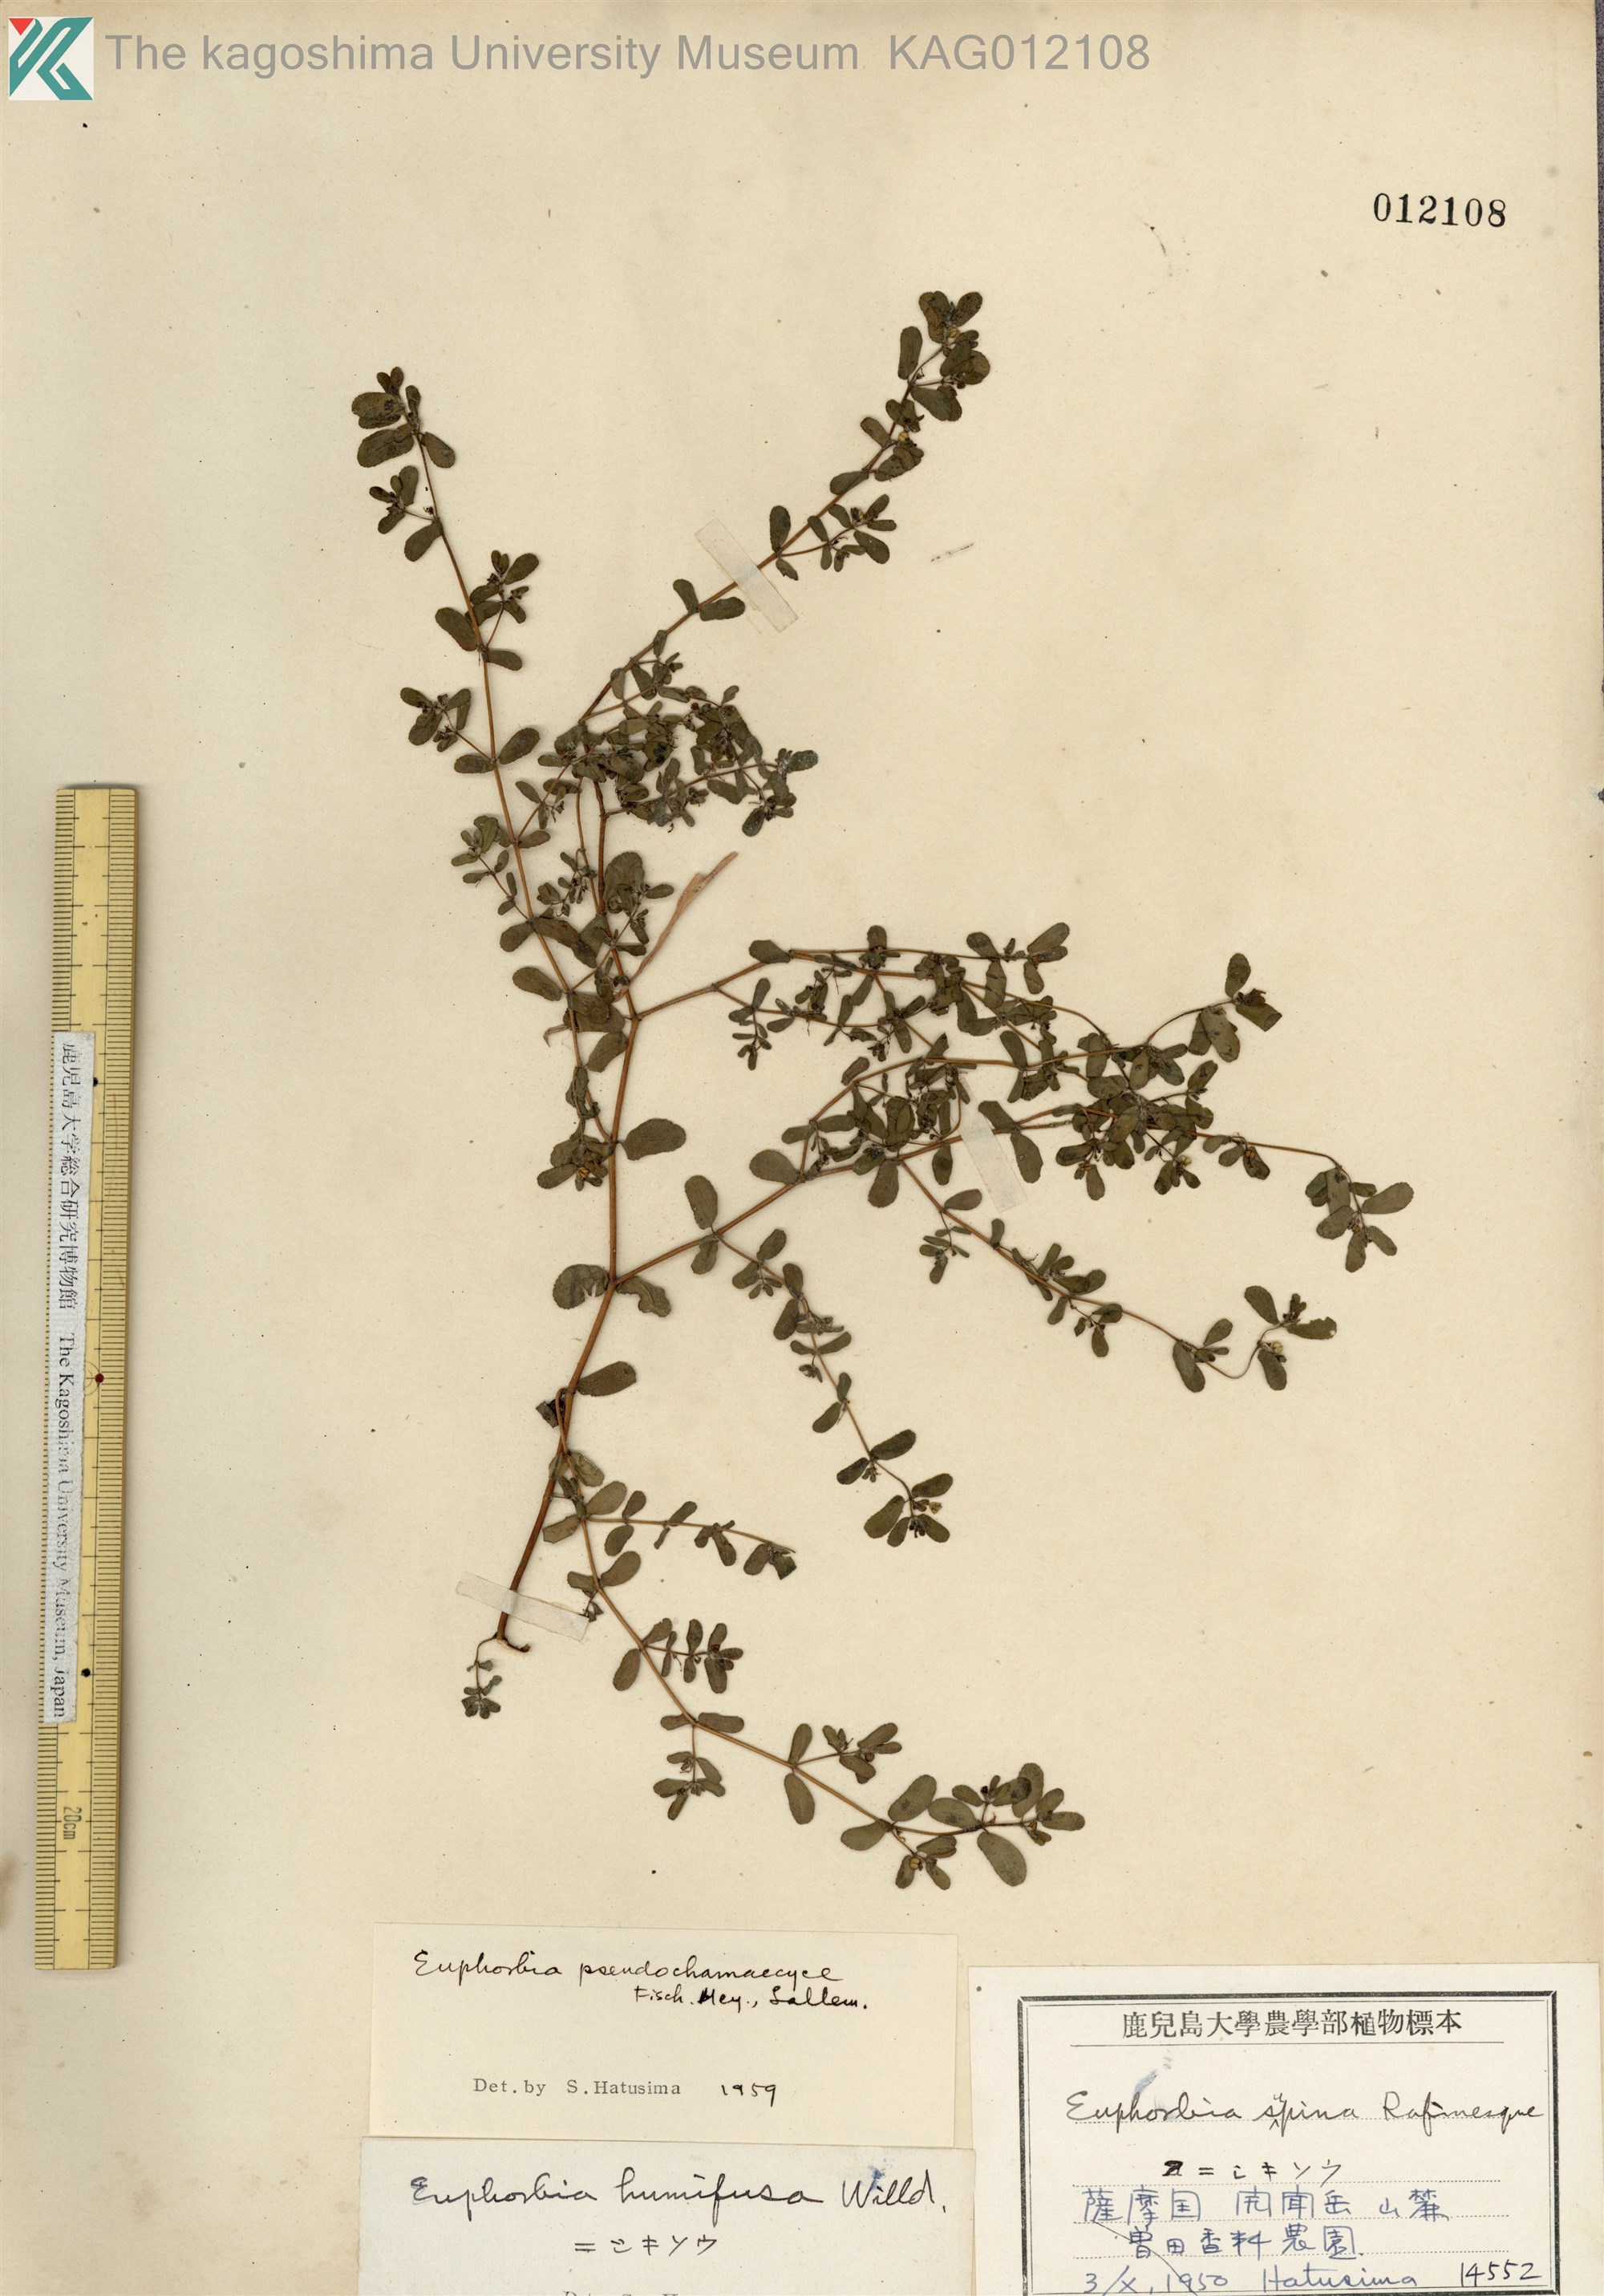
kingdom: Plantae
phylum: Tracheophyta
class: Magnoliopsida
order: Malpighiales
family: Euphorbiaceae
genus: Euphorbia
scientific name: Euphorbia humifusa
